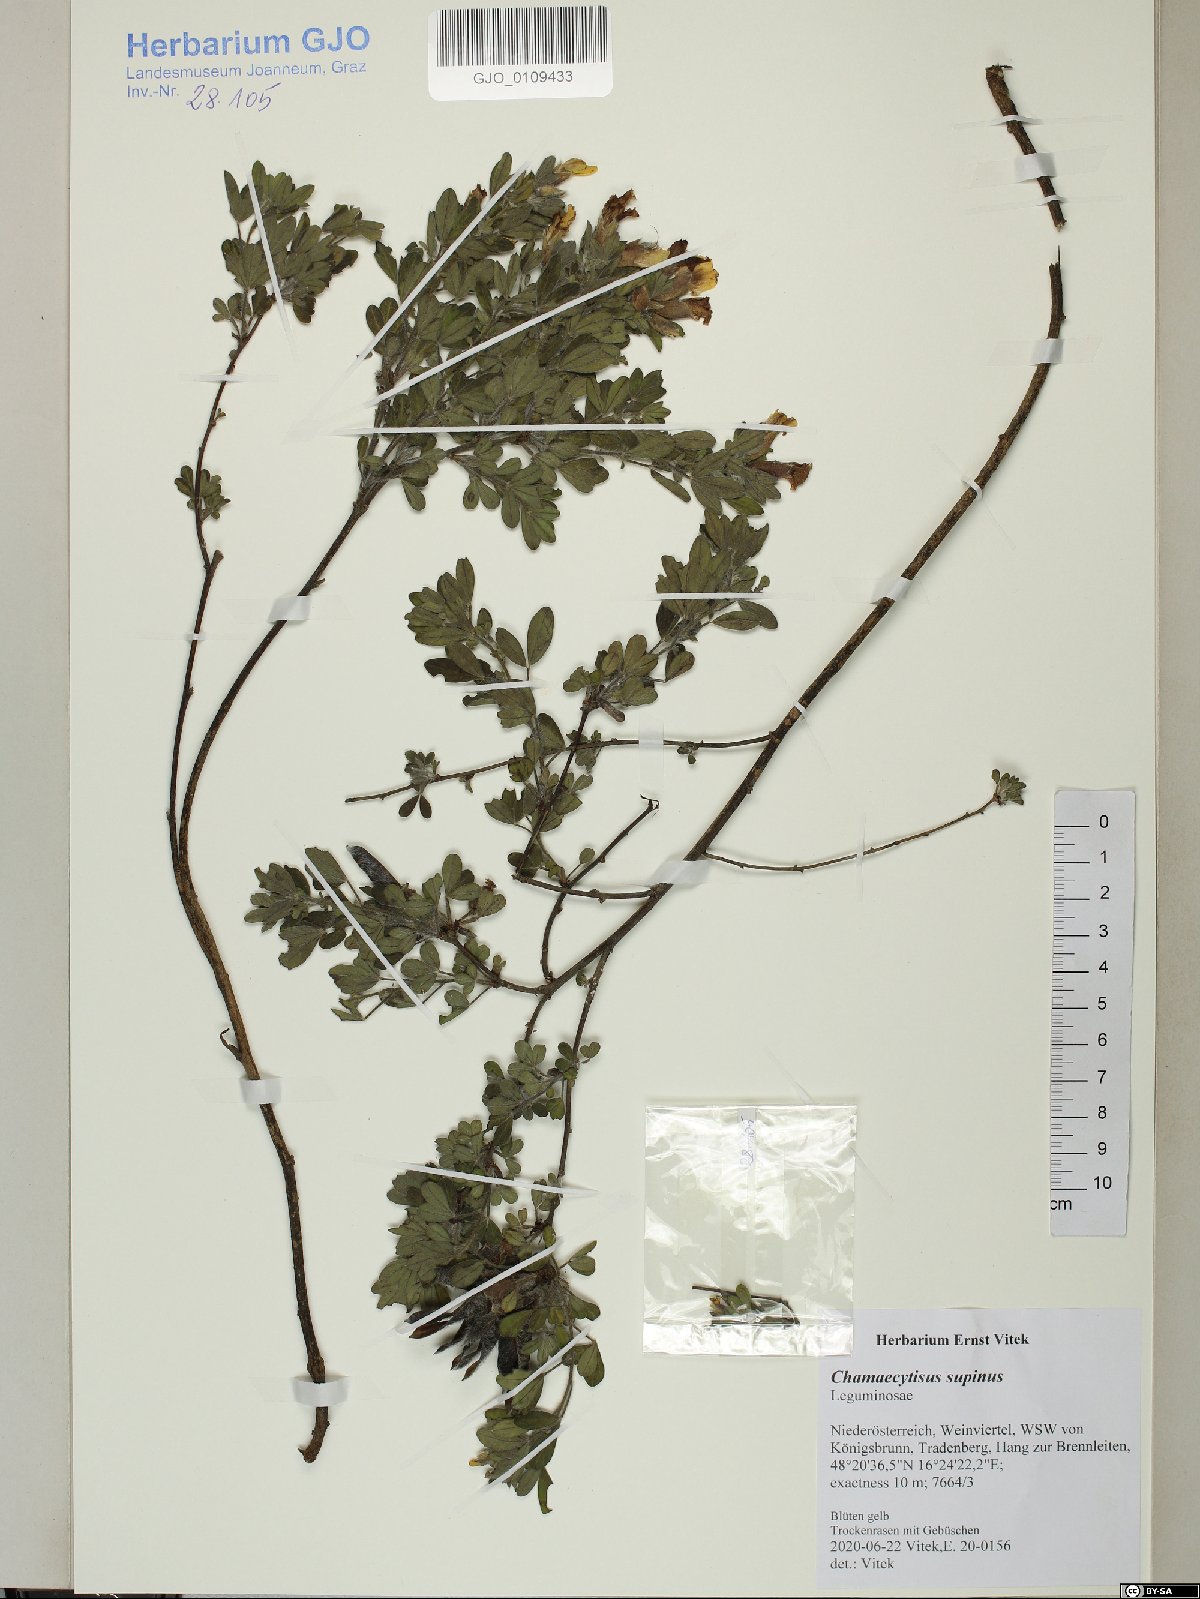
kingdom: Plantae
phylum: Tracheophyta
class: Magnoliopsida
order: Fabales
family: Fabaceae
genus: Chamaecytisus
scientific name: Chamaecytisus supinus
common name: Clustered broom
